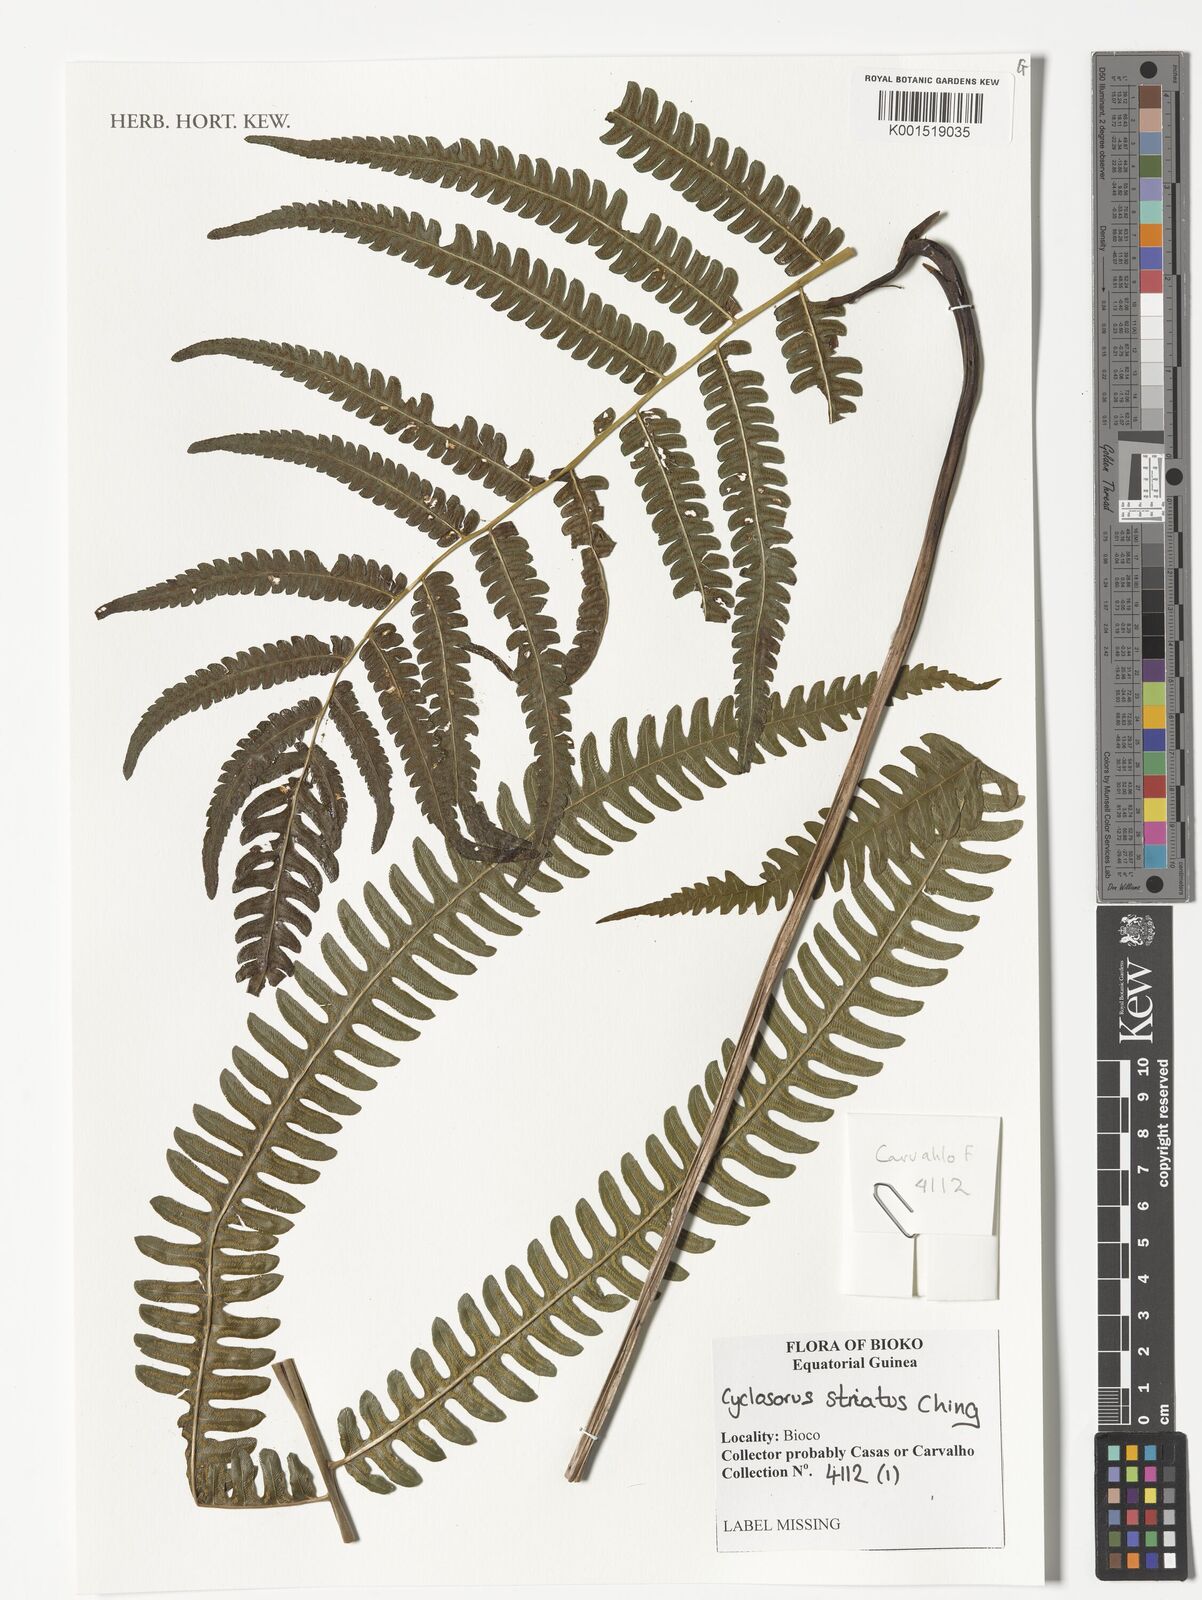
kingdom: Plantae
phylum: Tracheophyta
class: Polypodiopsida
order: Polypodiales
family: Thelypteridaceae
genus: Cyclosorus
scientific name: Cyclosorus striatus
